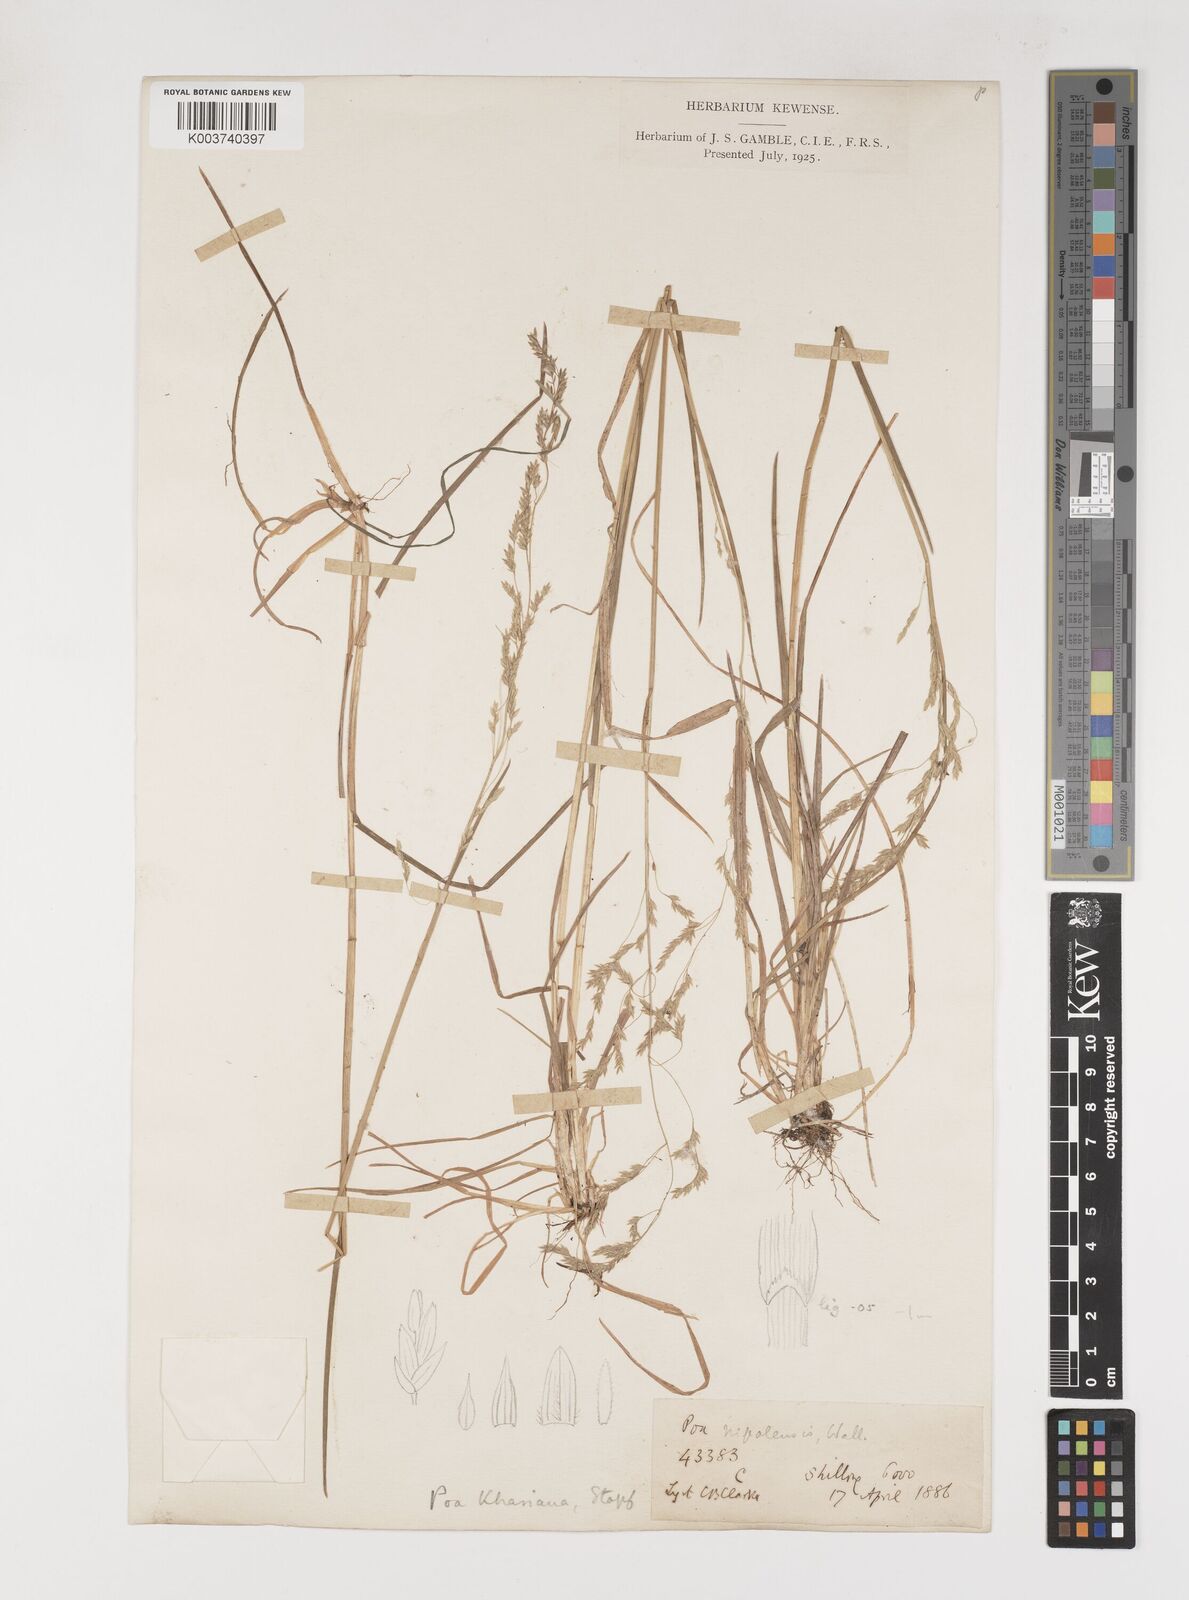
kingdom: Plantae
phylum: Tracheophyta
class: Liliopsida
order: Poales
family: Poaceae
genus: Poa
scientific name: Poa khasiana
